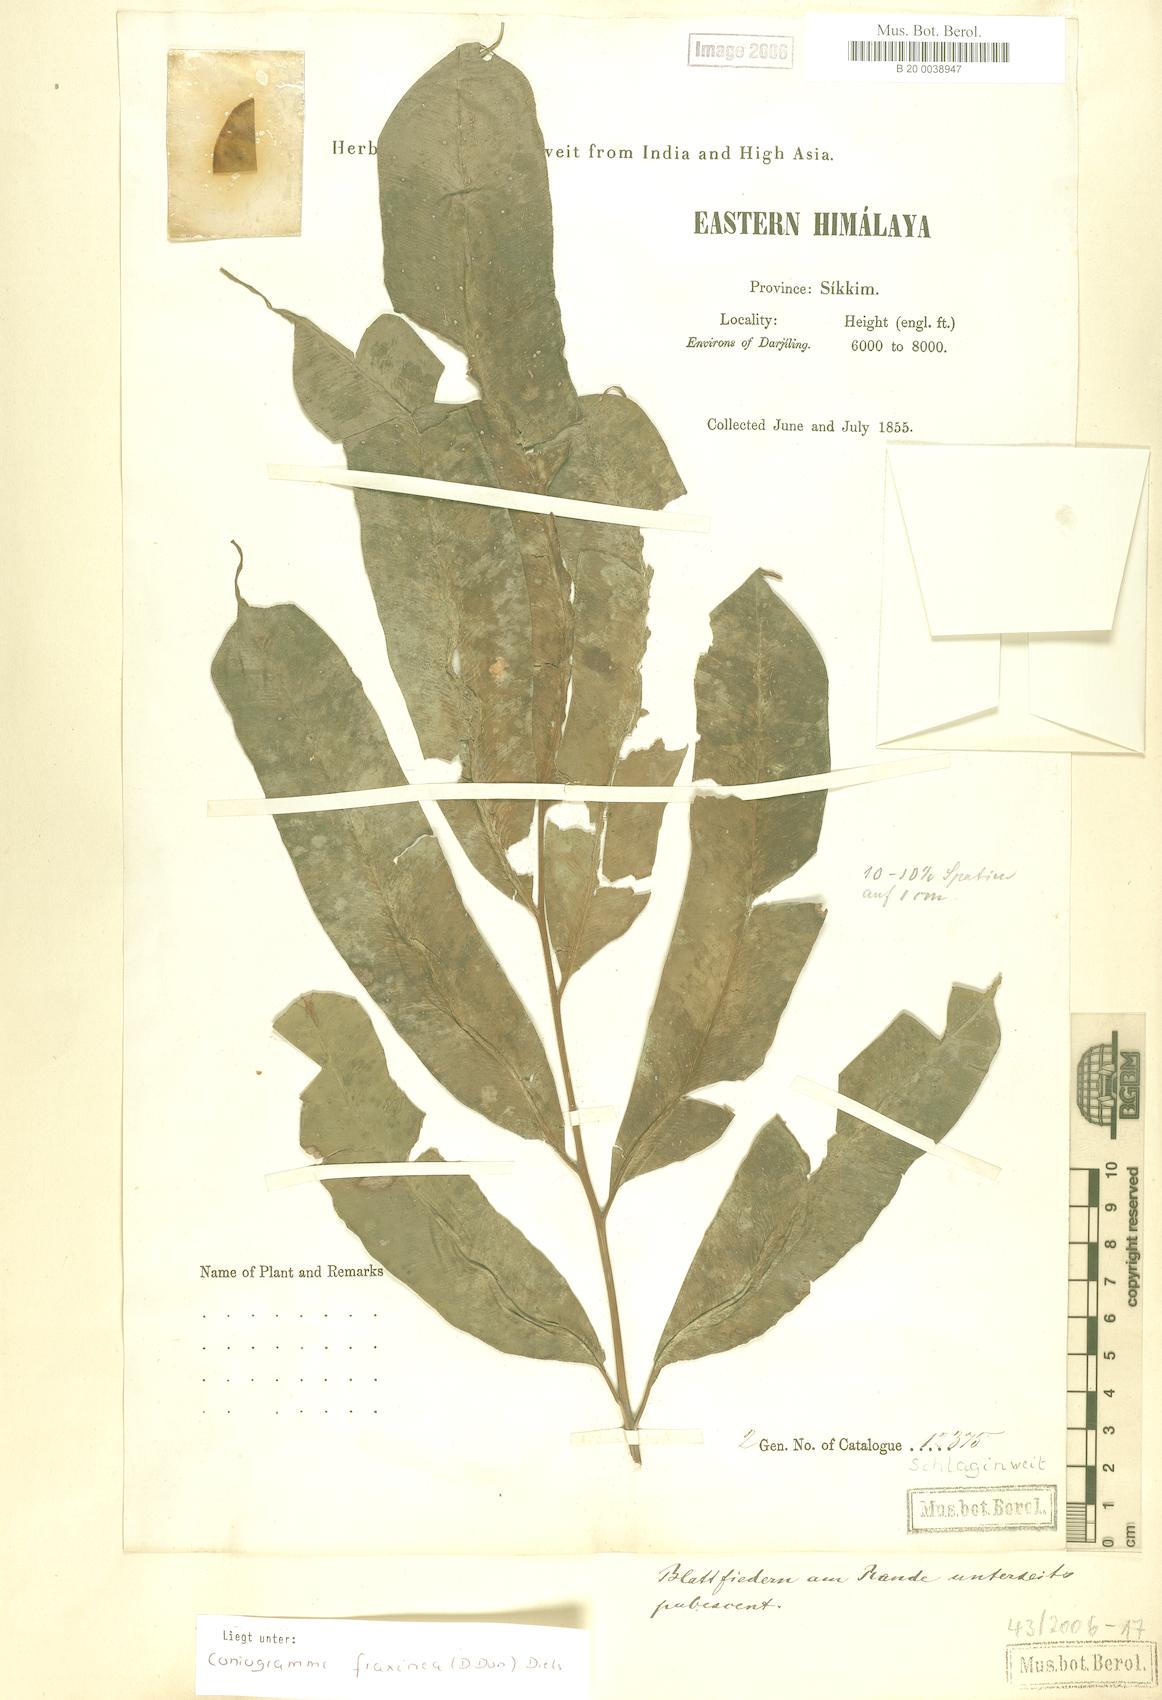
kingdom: Plantae
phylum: Tracheophyta
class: Polypodiopsida
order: Polypodiales
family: Pteridaceae
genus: Coniogramme
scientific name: Coniogramme fraxinea
